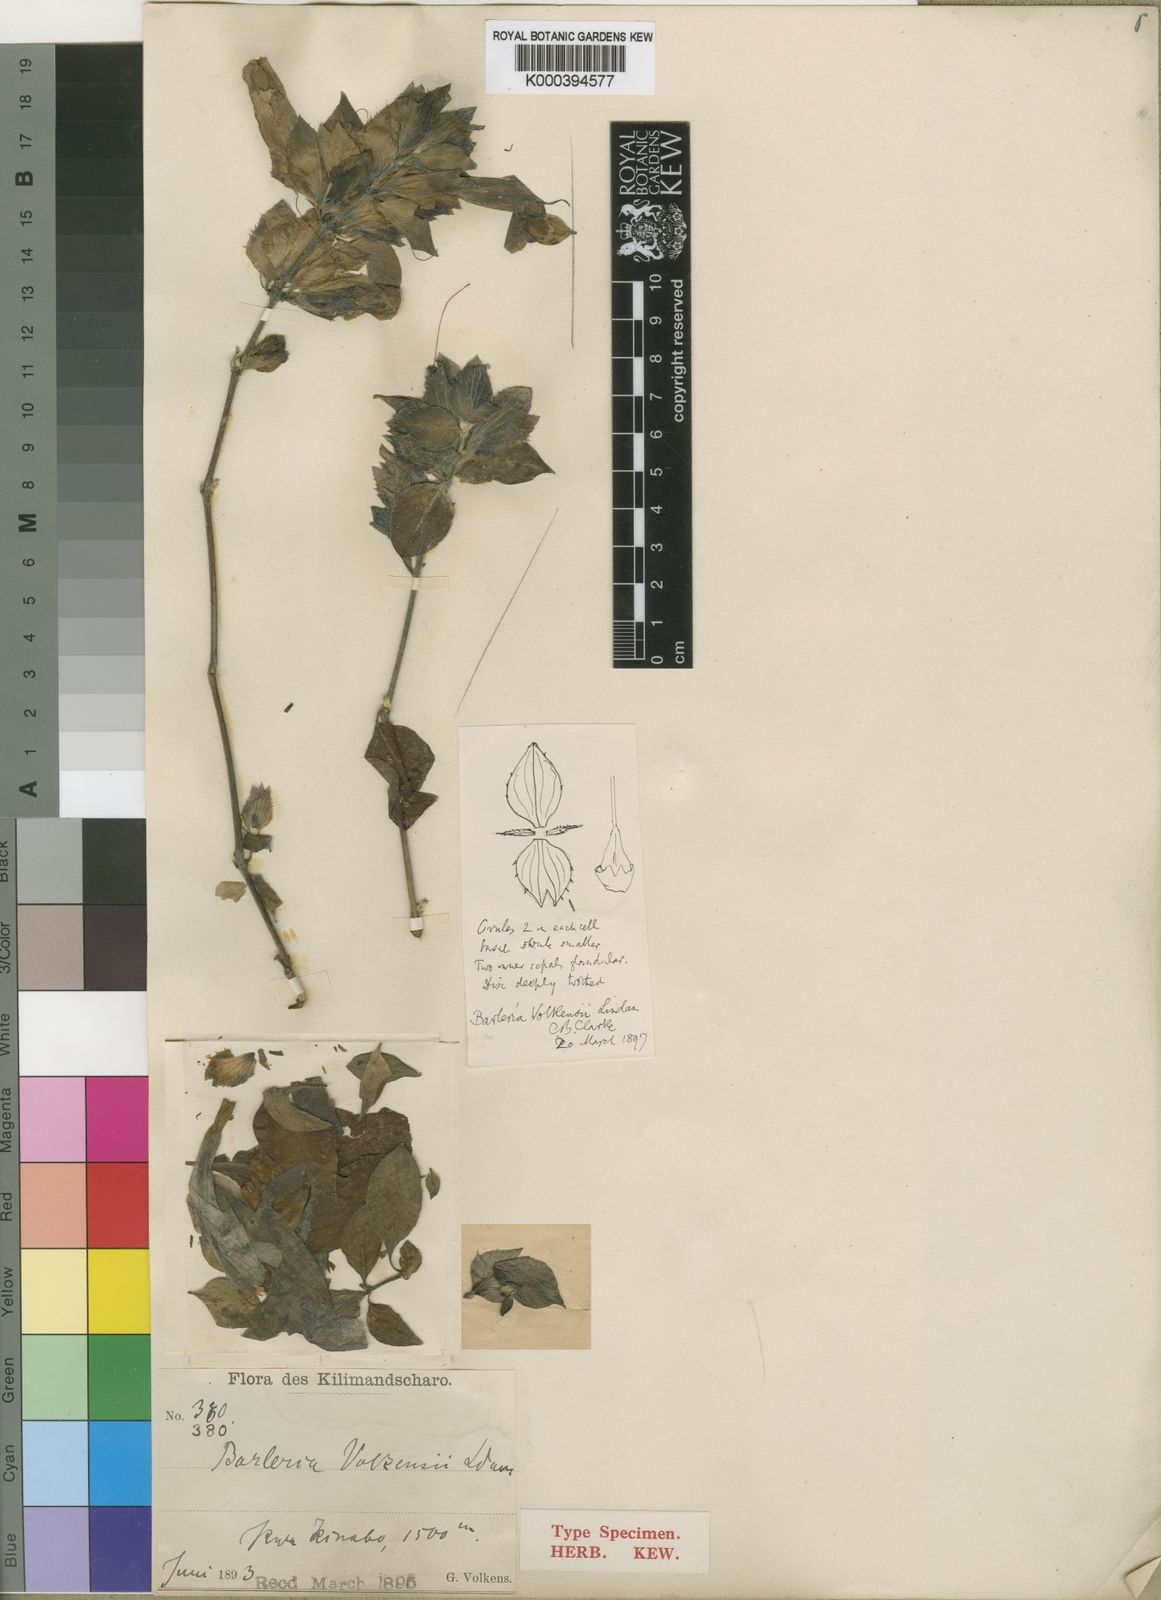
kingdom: Plantae
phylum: Tracheophyta
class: Magnoliopsida
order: Lamiales
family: Acanthaceae
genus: Barleria
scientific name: Barleria volkensii
